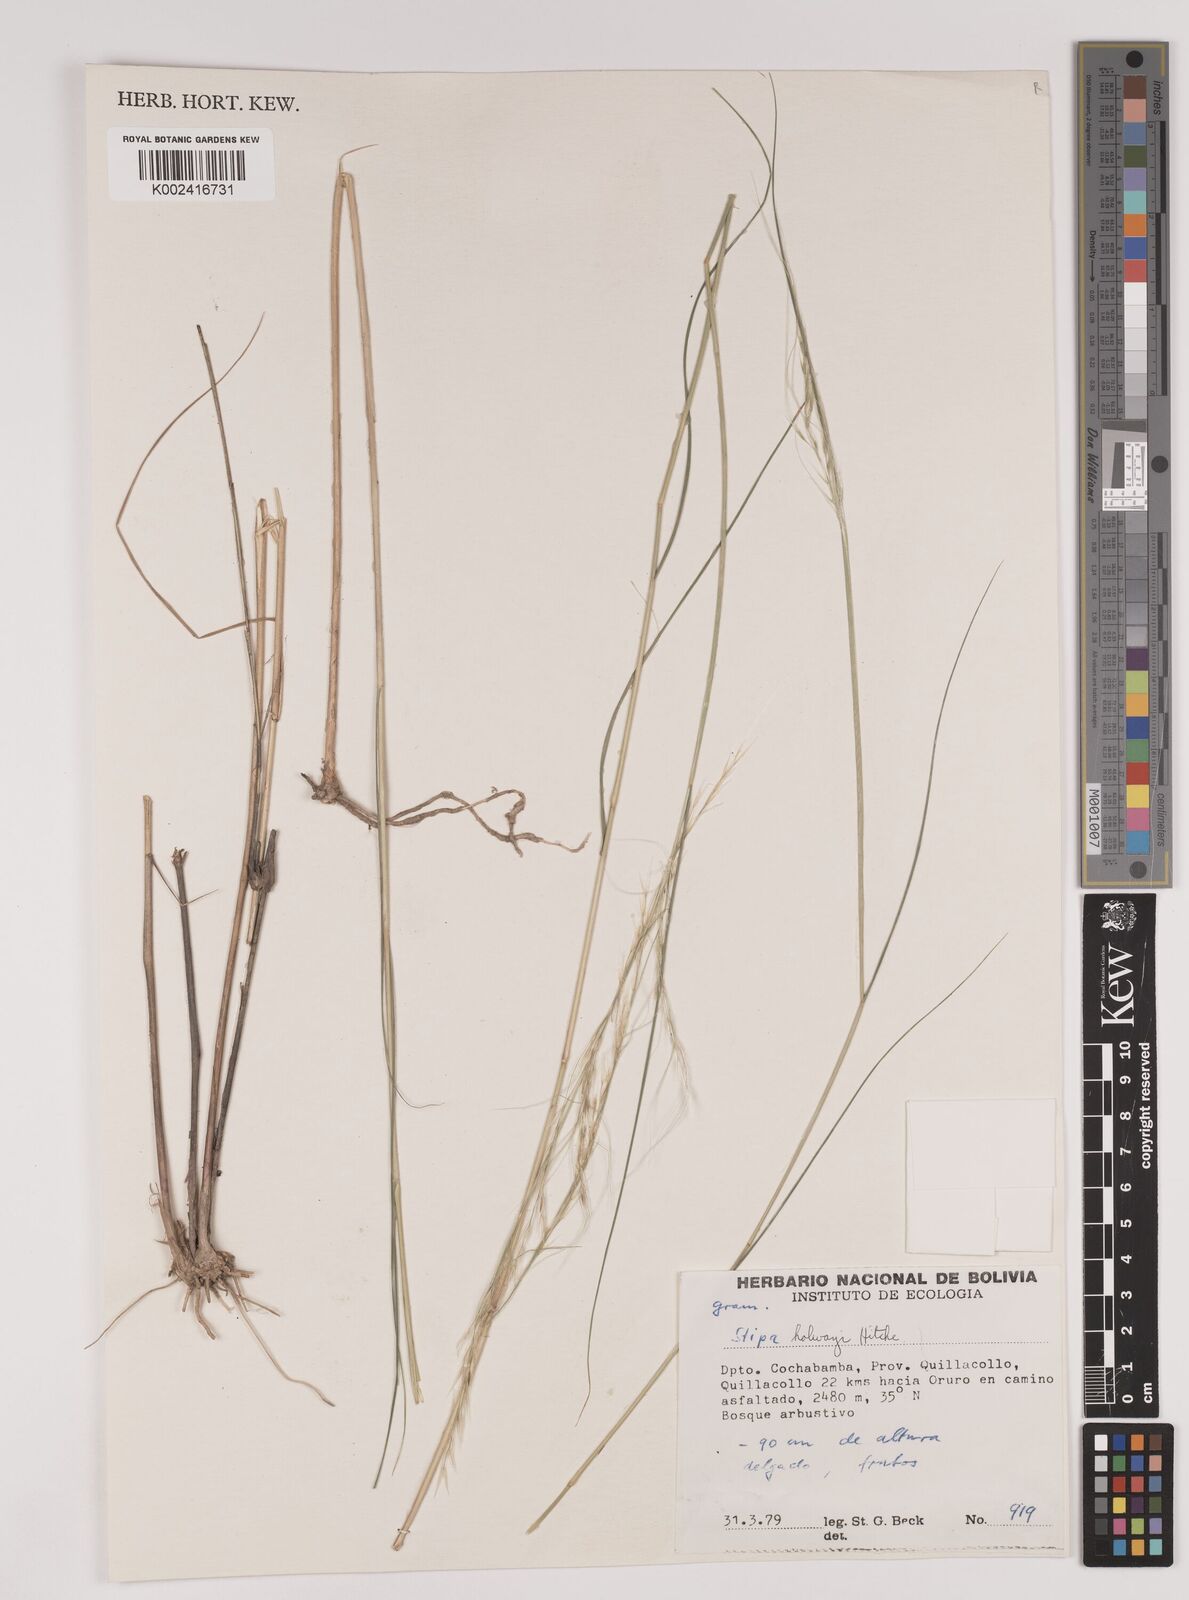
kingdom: Plantae
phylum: Tracheophyta
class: Liliopsida
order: Poales
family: Poaceae
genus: Stipa
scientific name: Stipa plumosa
